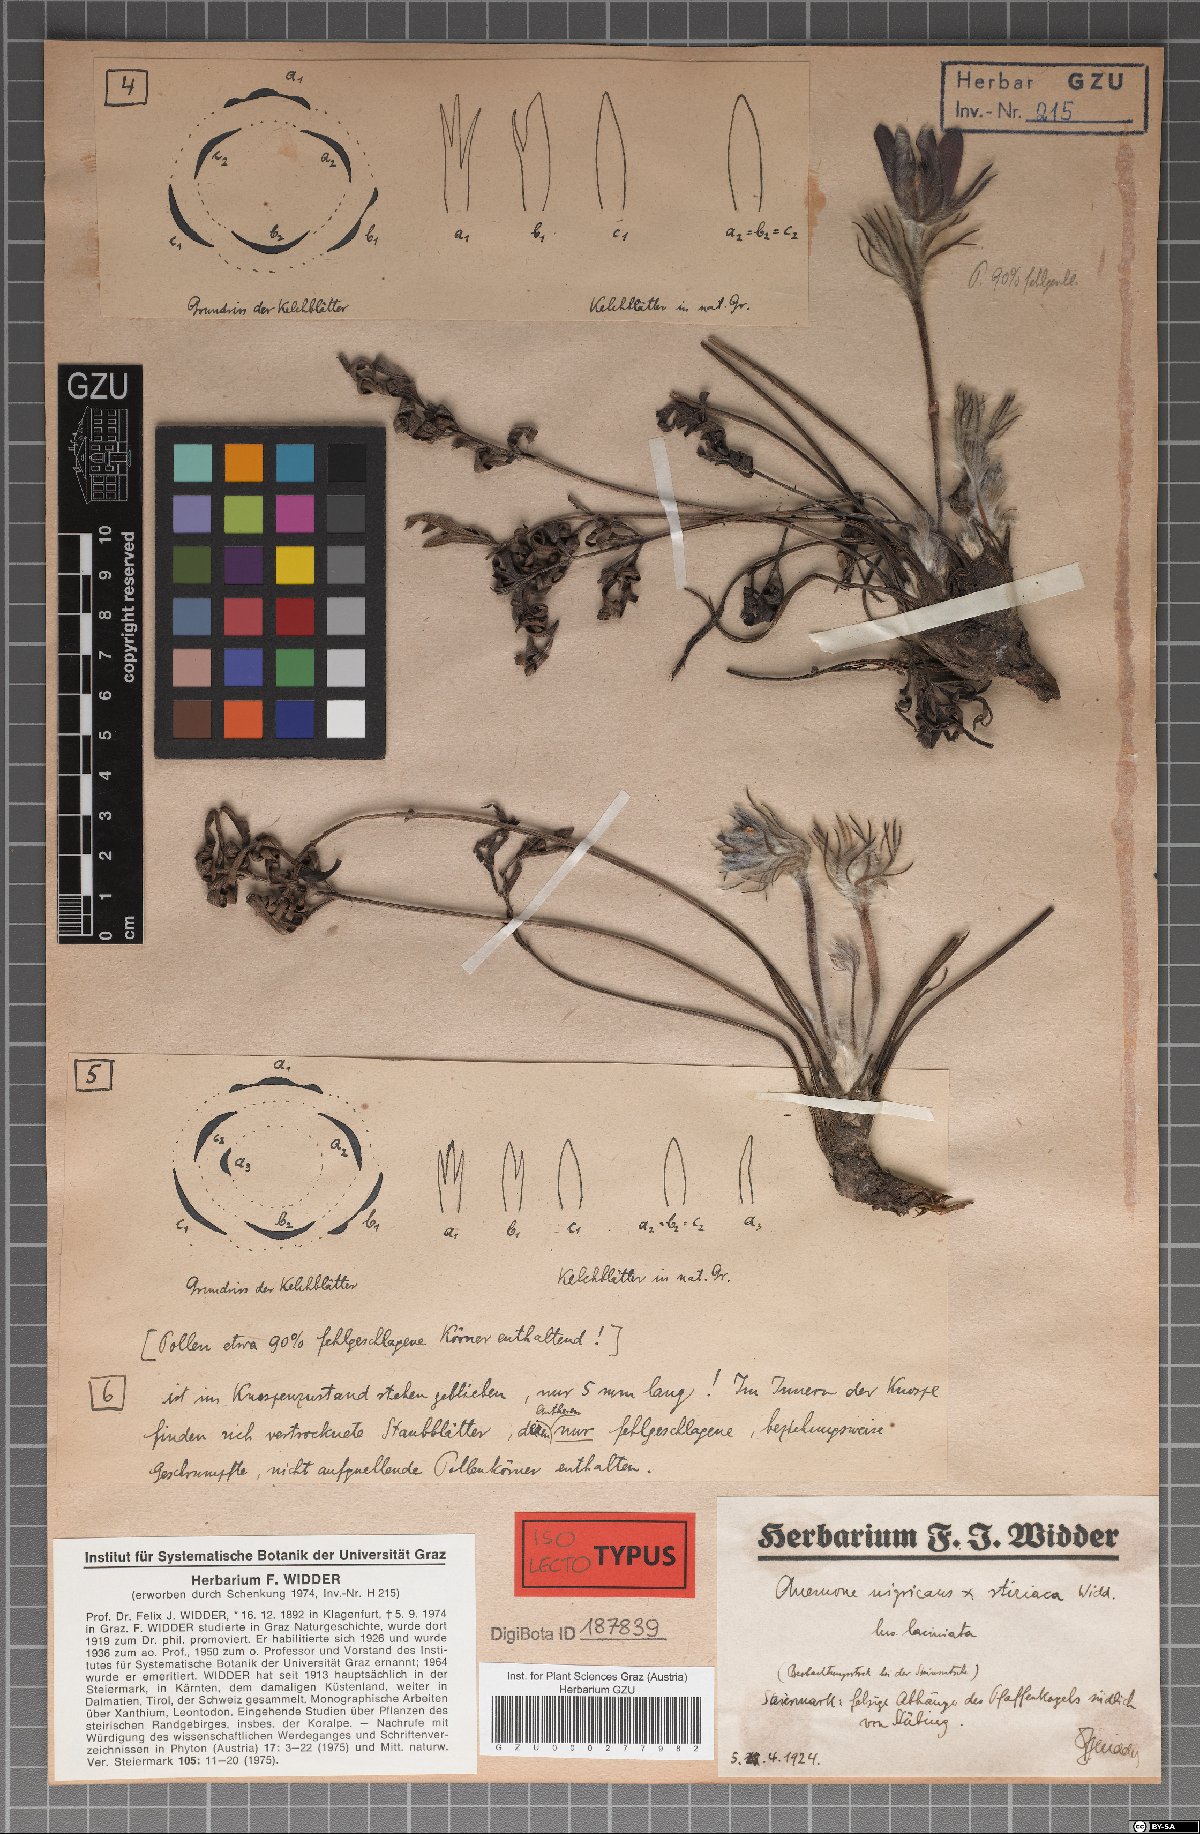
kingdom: Plantae
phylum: Tracheophyta
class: Magnoliopsida
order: Ranunculales
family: Ranunculaceae
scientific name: Ranunculaceae
